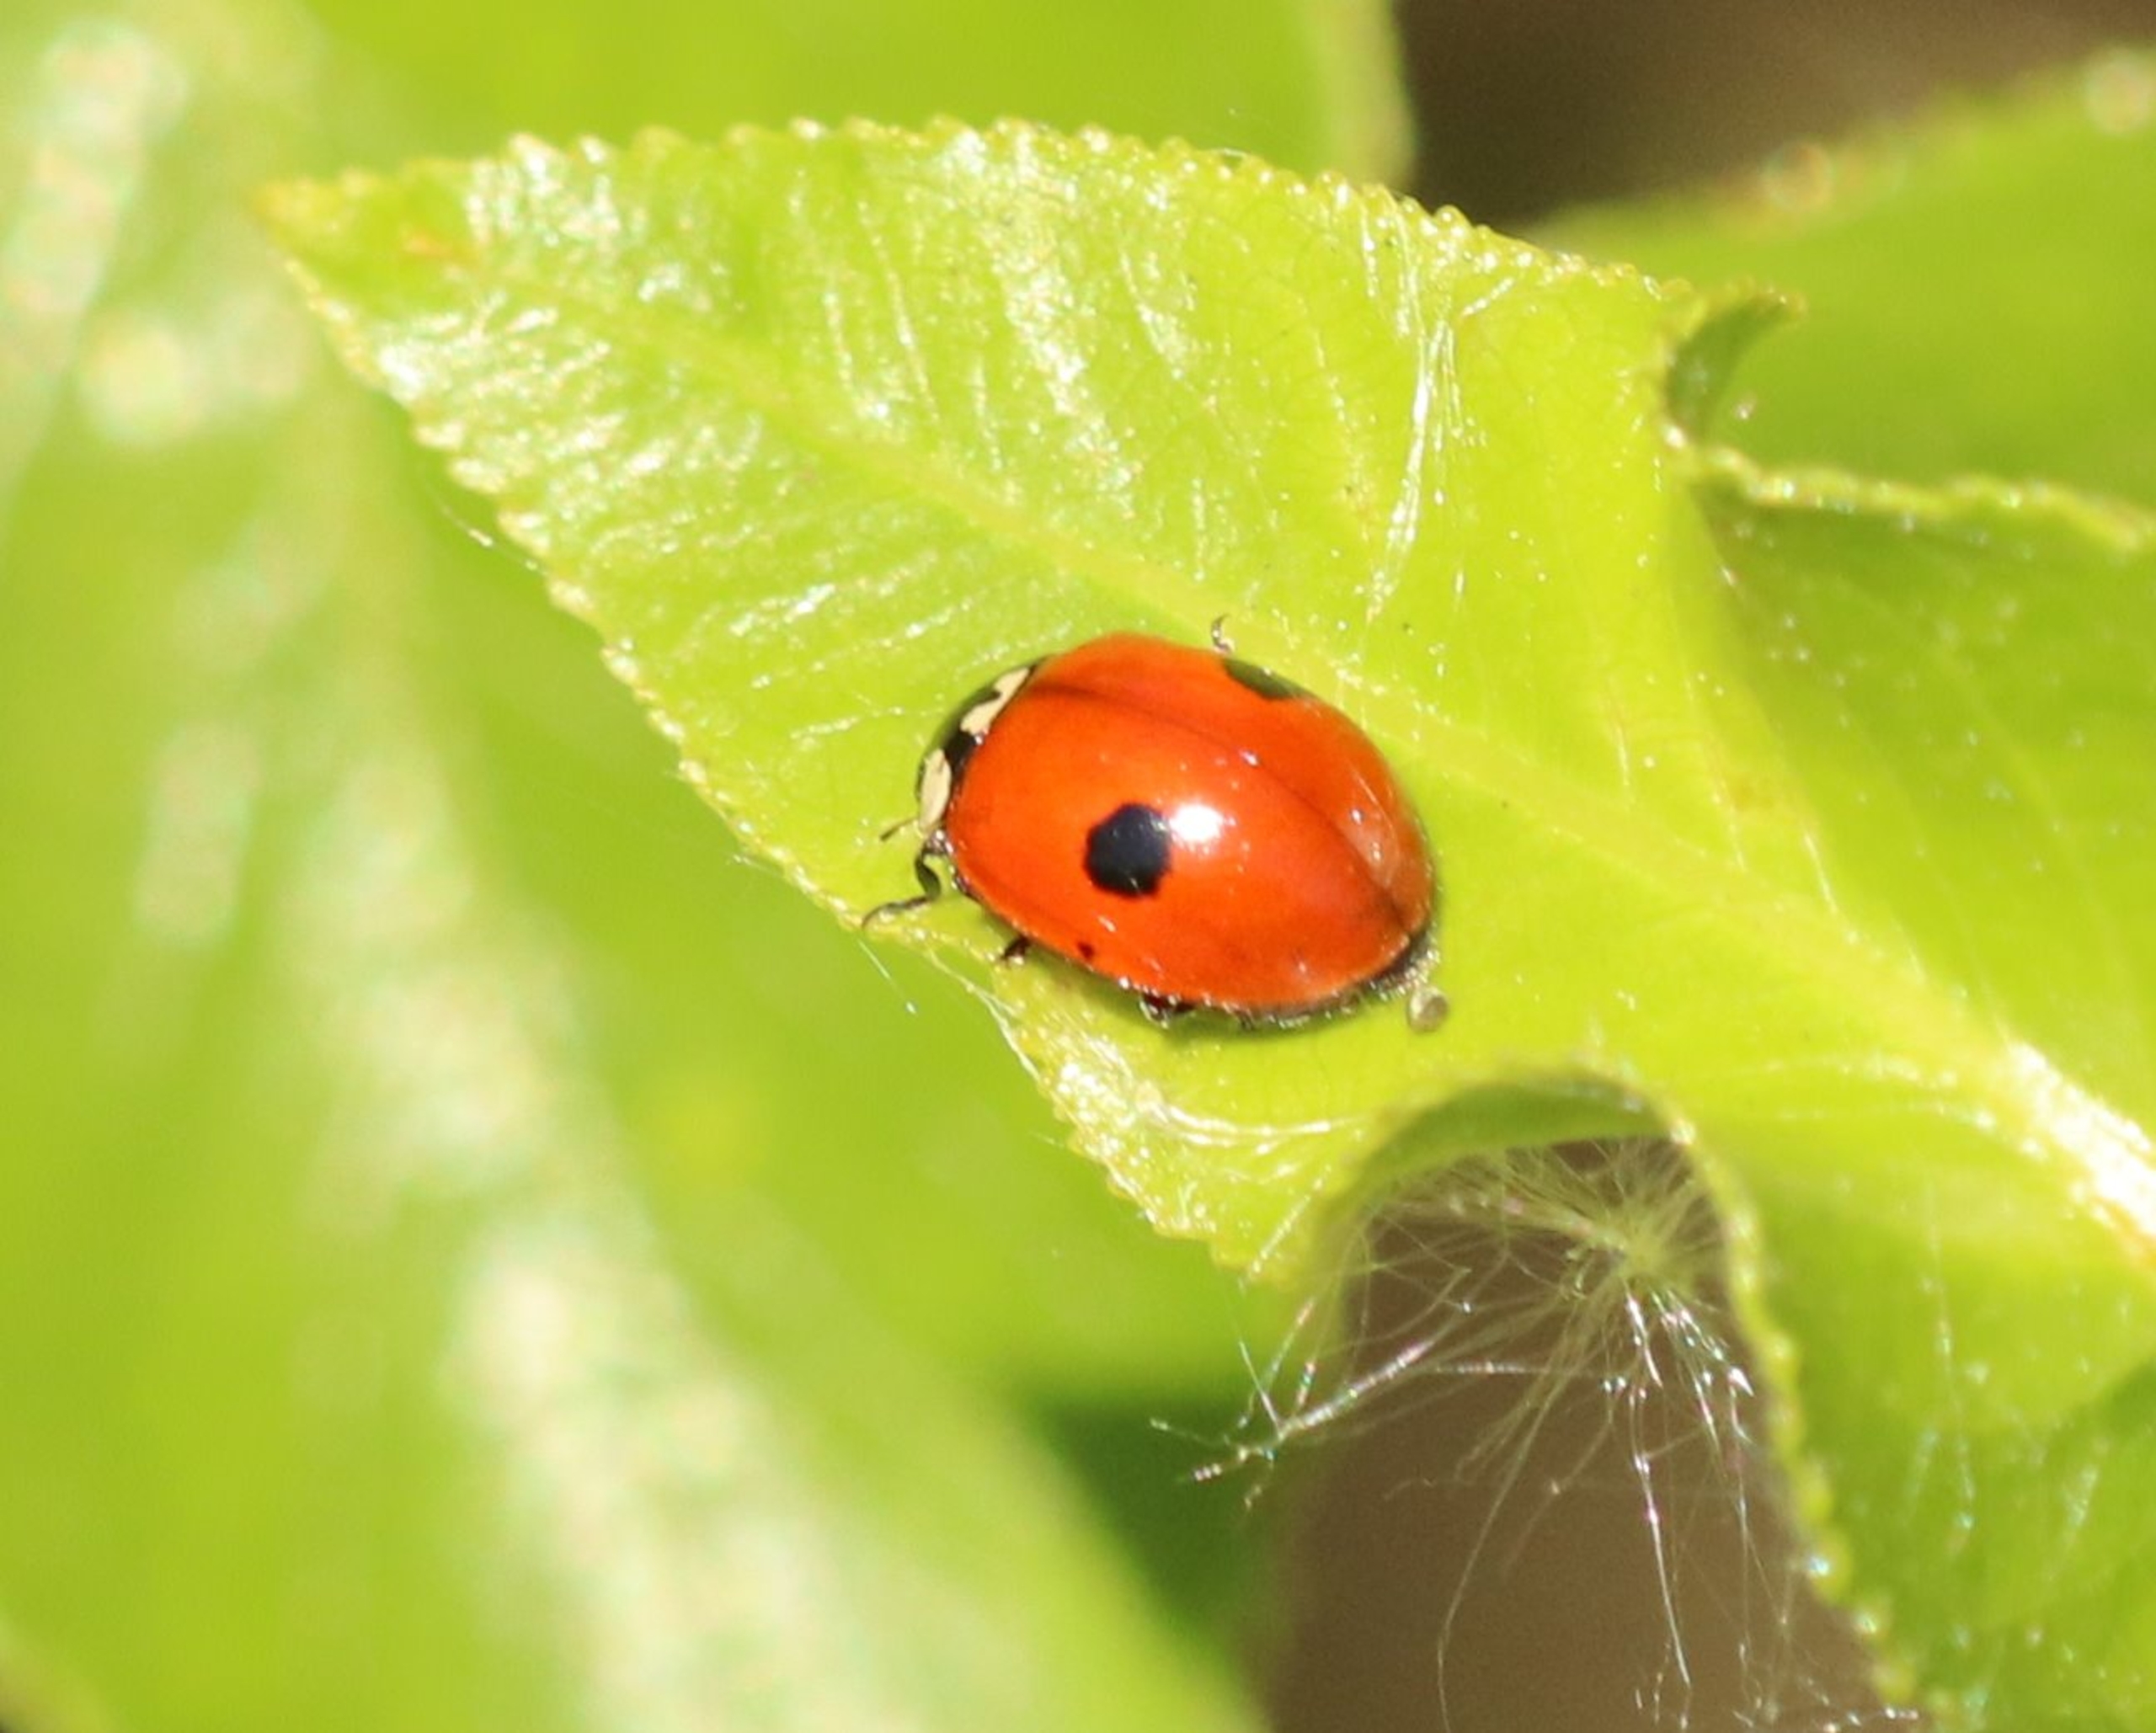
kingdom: Animalia
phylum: Arthropoda
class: Insecta
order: Coleoptera
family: Coccinellidae
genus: Adalia
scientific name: Adalia bipunctata
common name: Toplettet mariehøne
